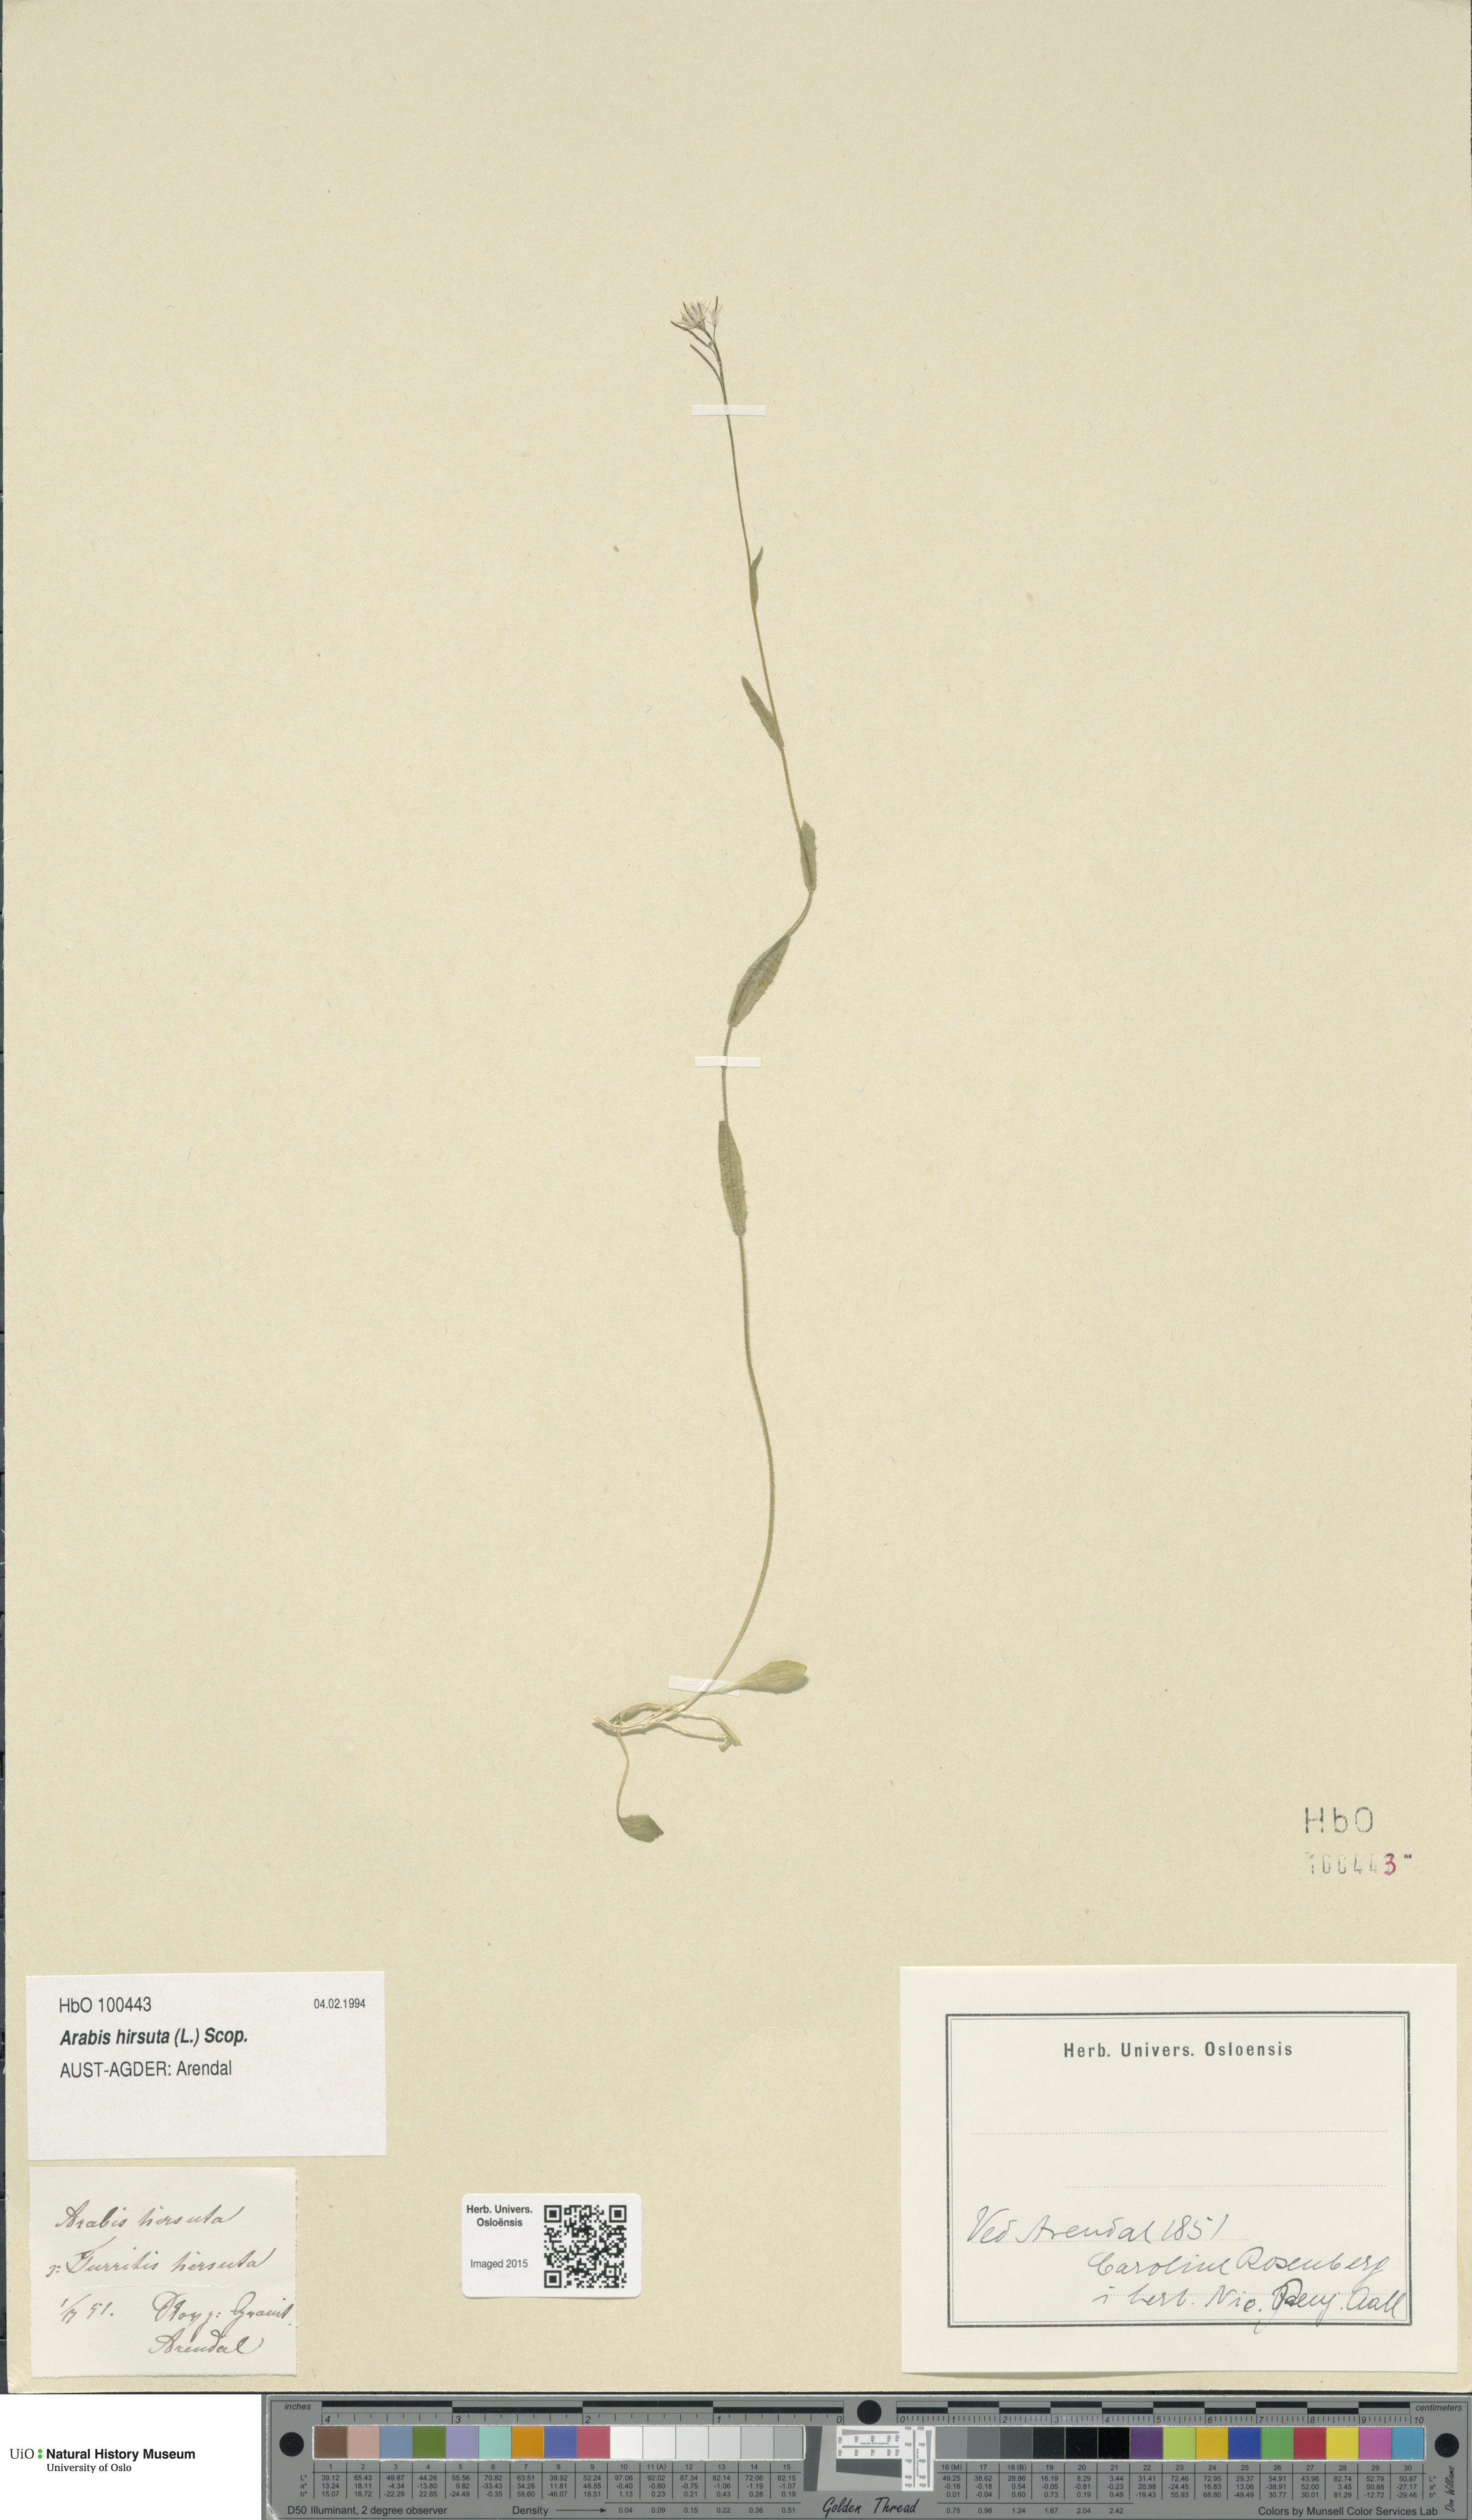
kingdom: Plantae
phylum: Tracheophyta
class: Magnoliopsida
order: Brassicales
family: Brassicaceae
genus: Arabis
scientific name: Arabis hirsuta
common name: Hairy rock-cress
